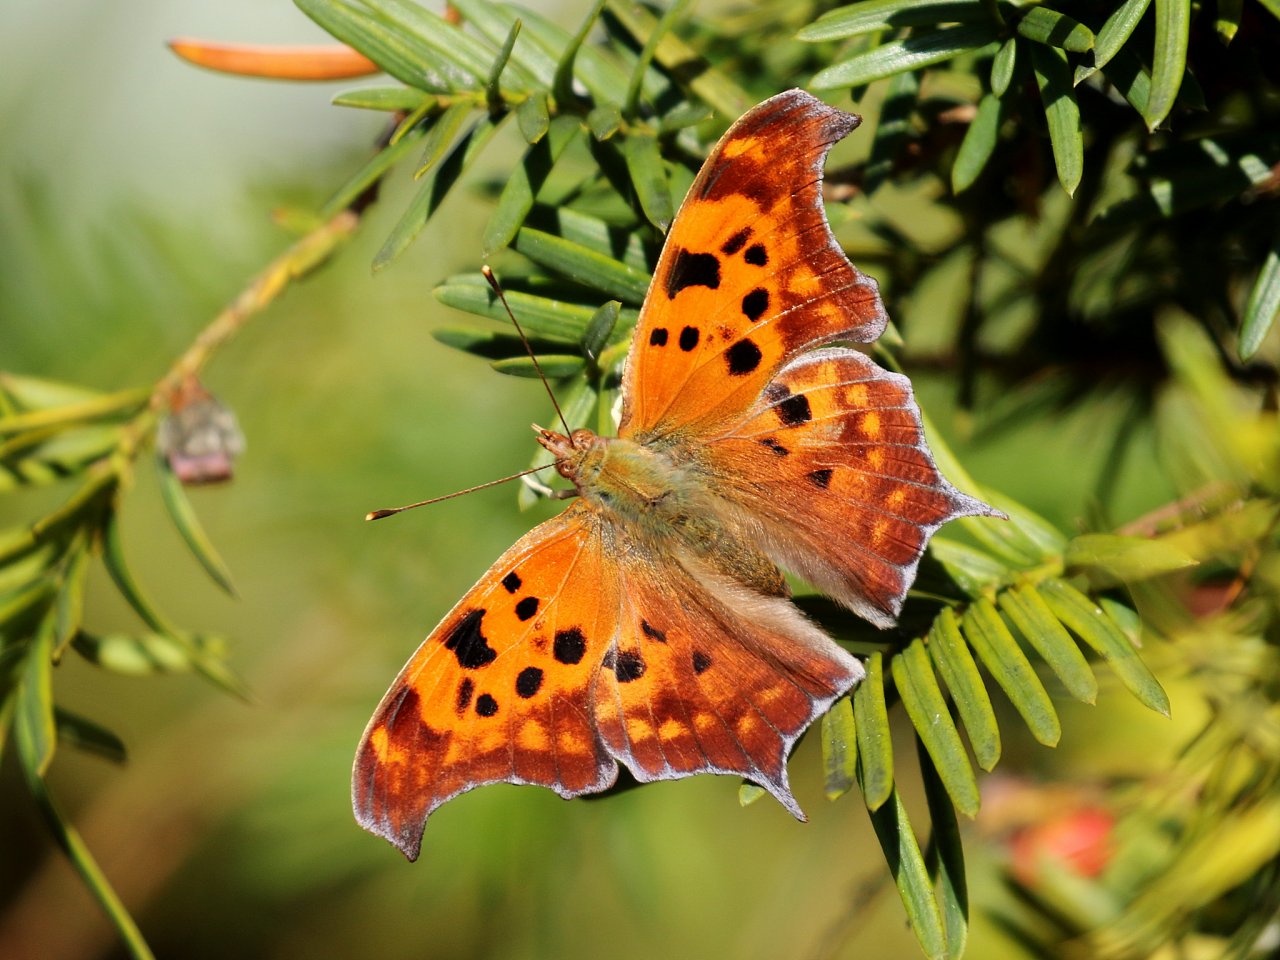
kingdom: Animalia
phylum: Arthropoda
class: Insecta
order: Lepidoptera
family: Nymphalidae
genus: Polygonia
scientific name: Polygonia interrogationis
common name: Question Mark
